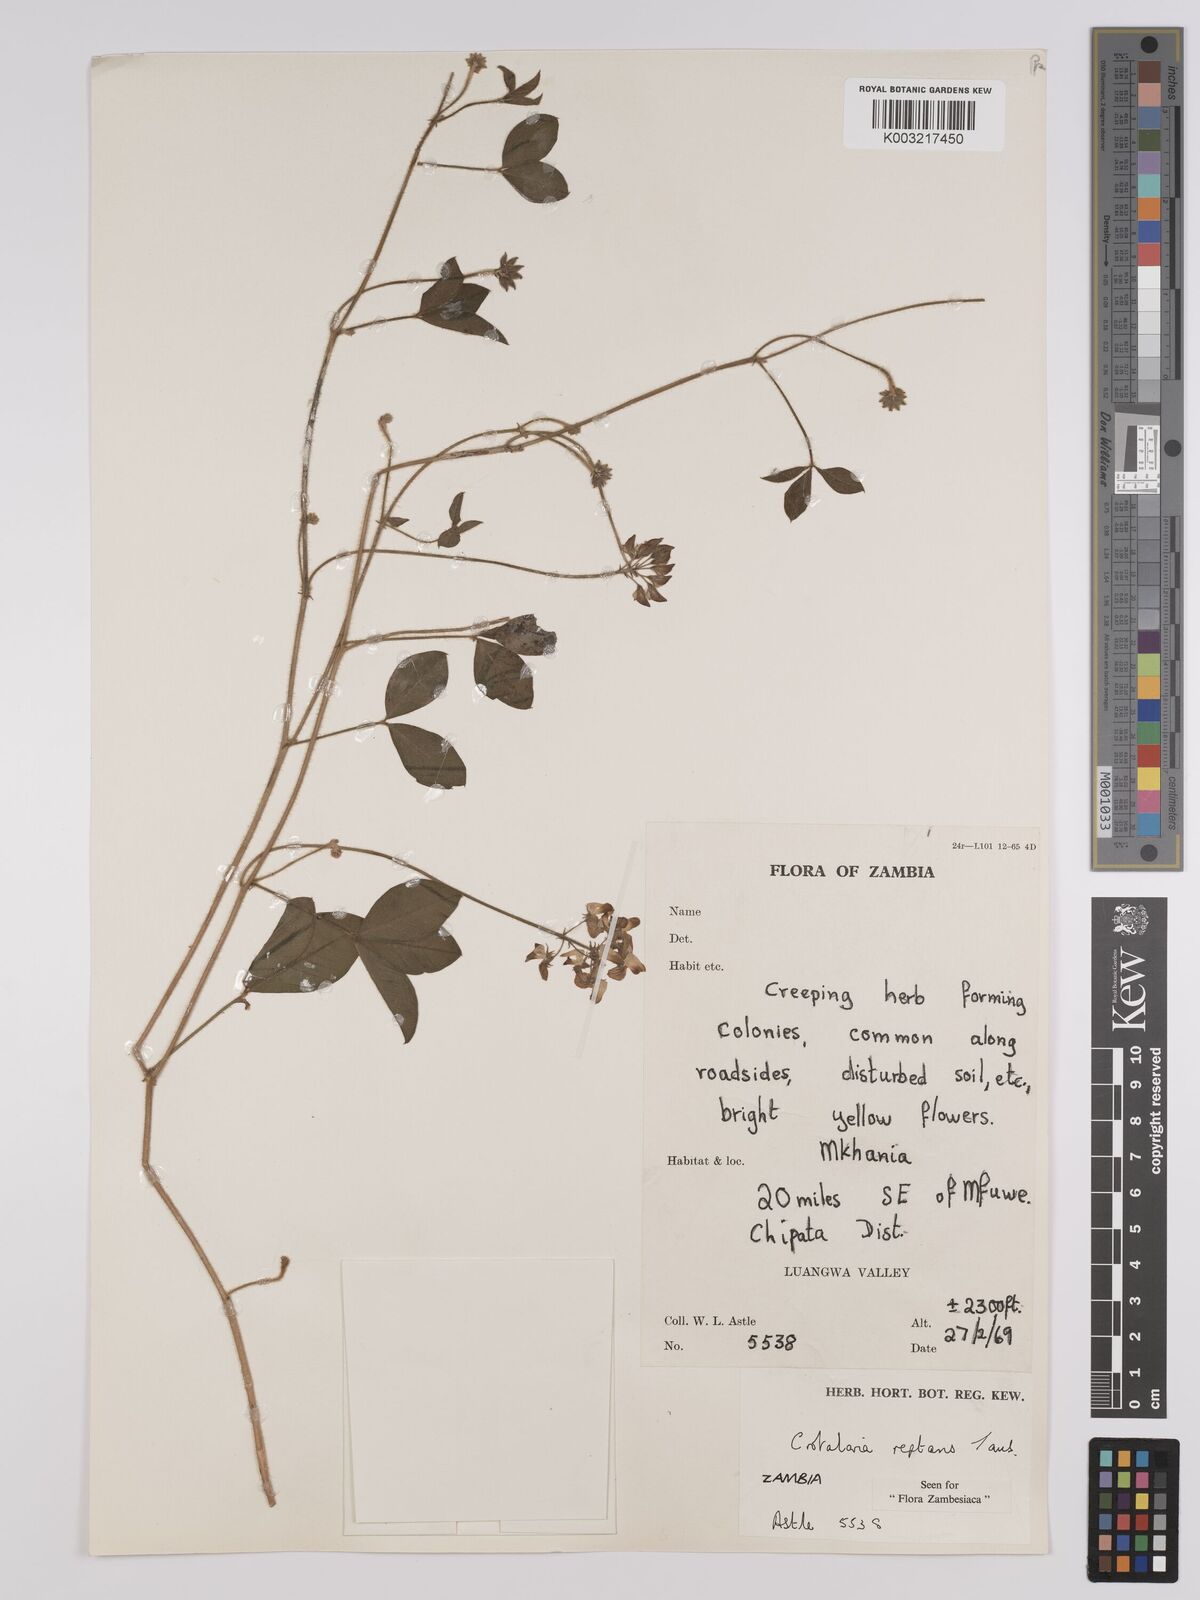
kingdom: Plantae
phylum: Tracheophyta
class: Magnoliopsida
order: Fabales
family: Fabaceae
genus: Crotalaria
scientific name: Crotalaria reptans
